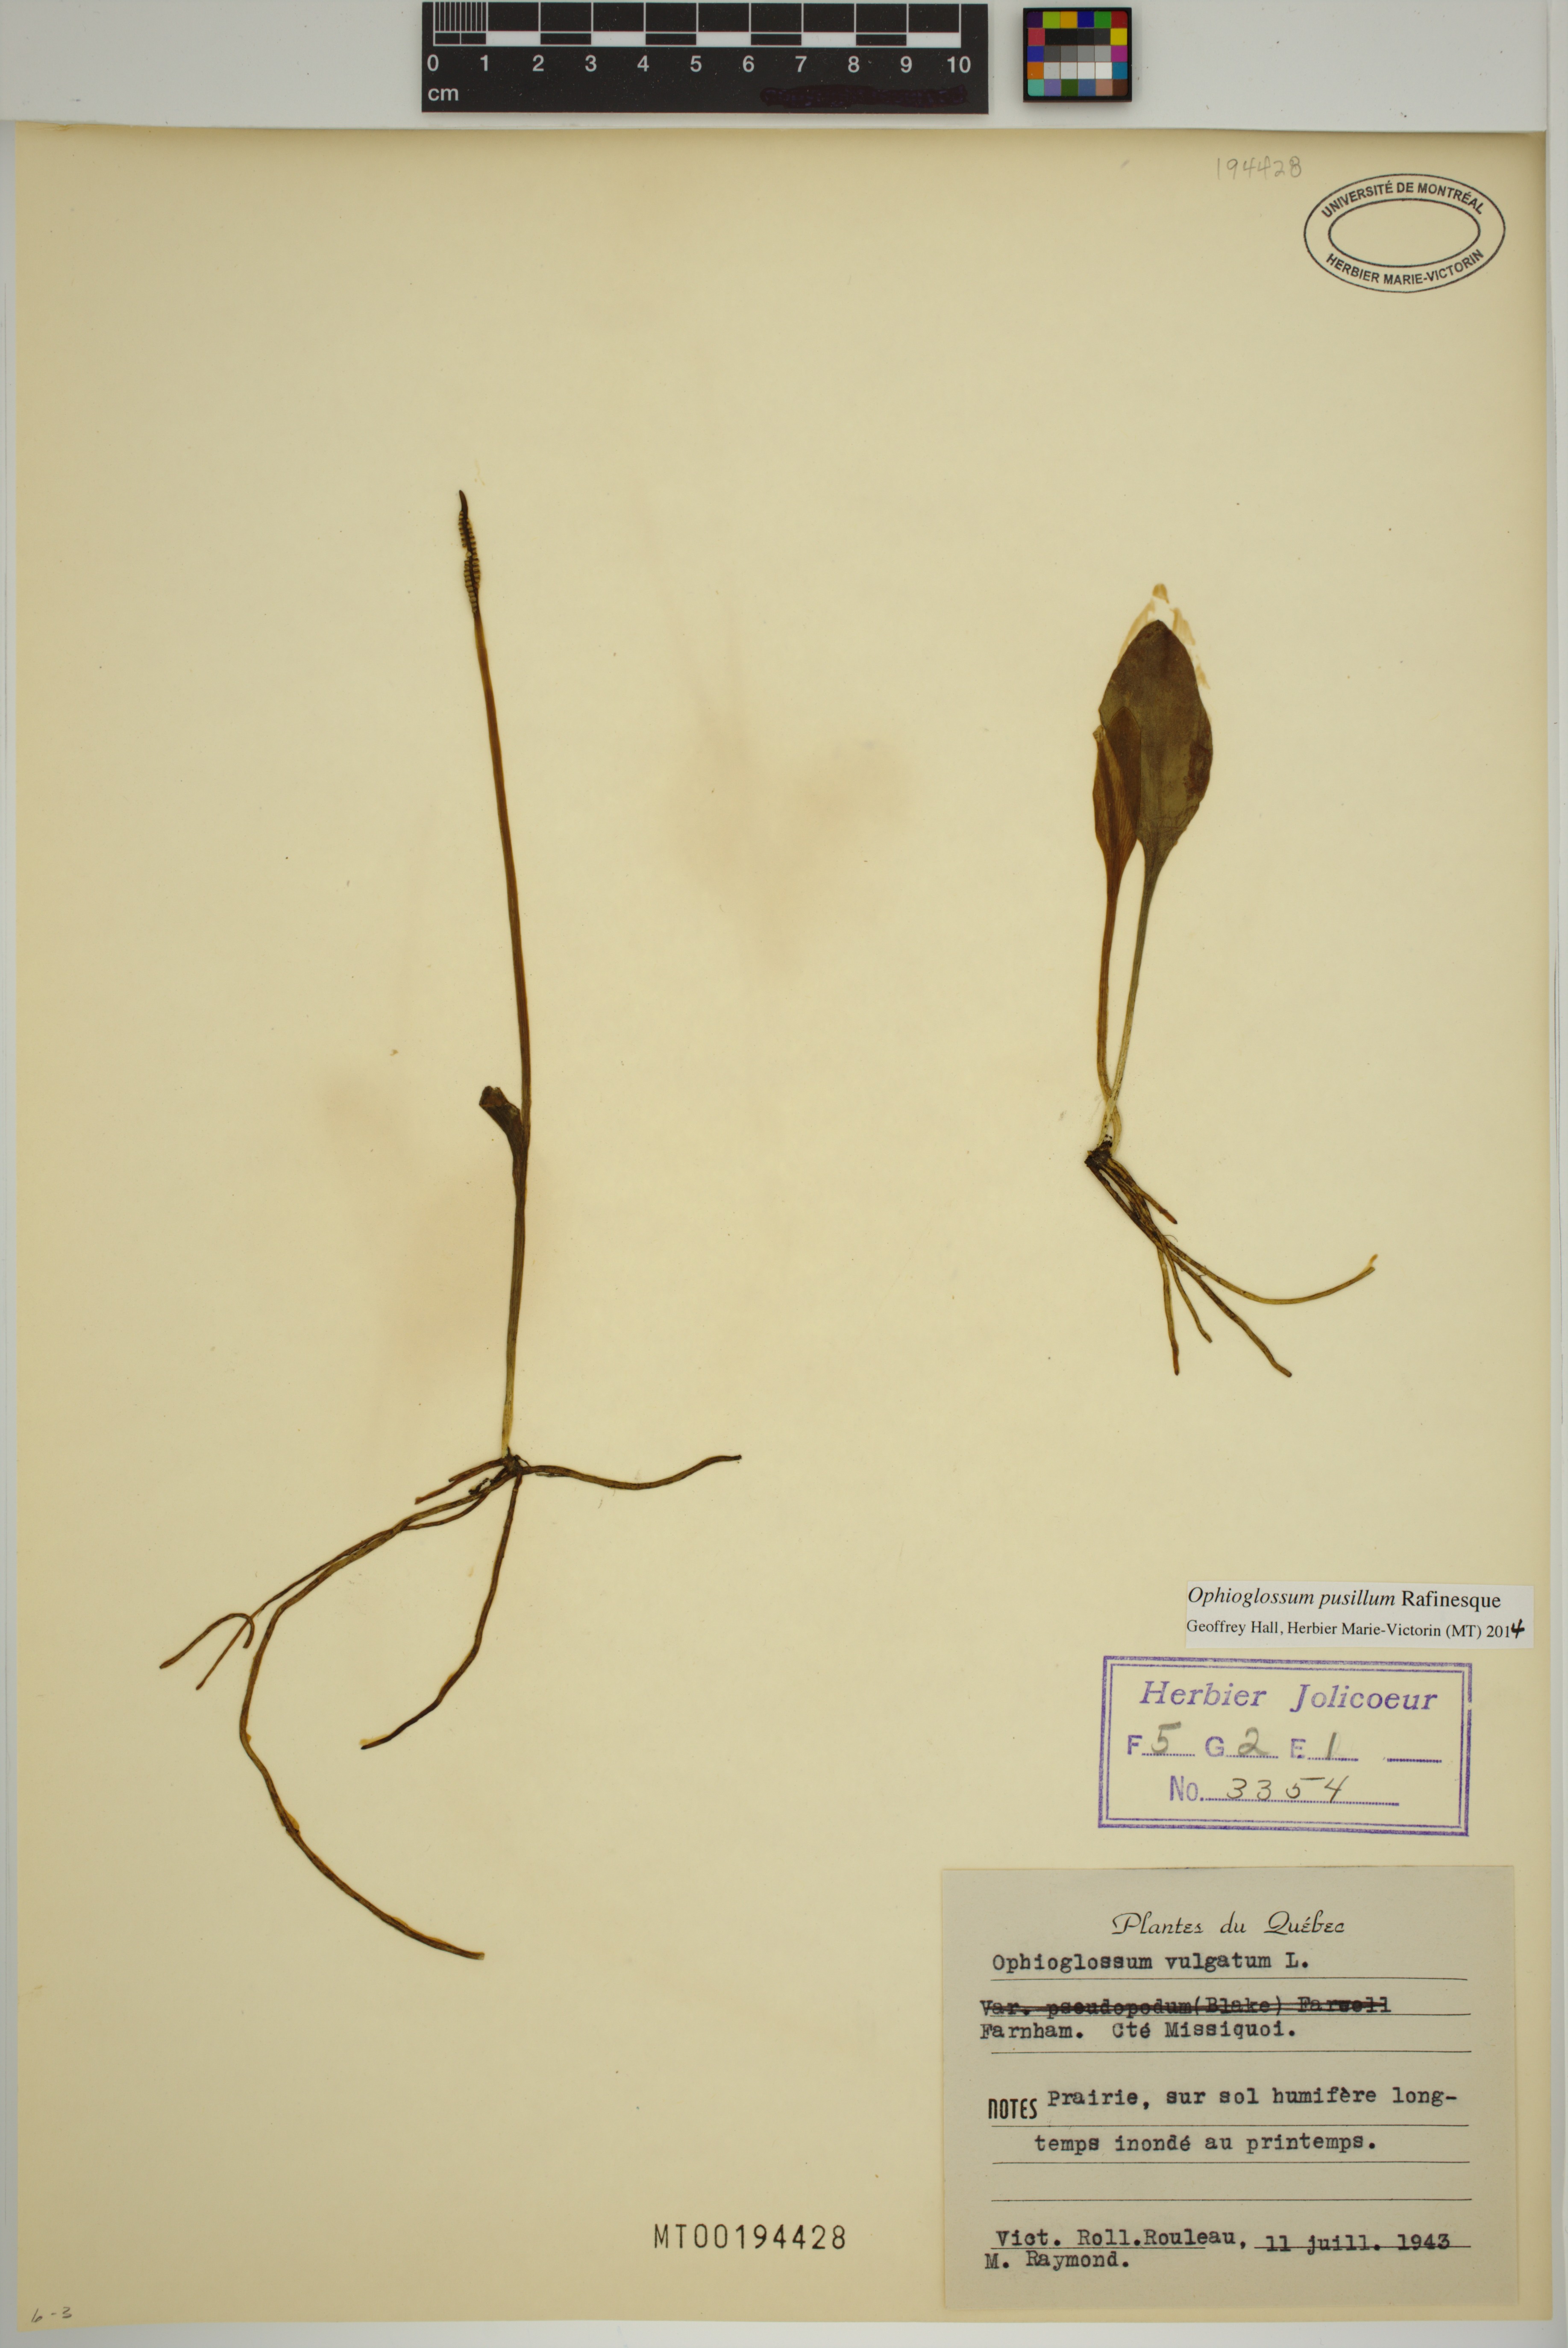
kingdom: Plantae
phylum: Tracheophyta
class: Polypodiopsida
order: Ophioglossales
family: Ophioglossaceae
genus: Ophioglossum
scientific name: Ophioglossum pusillum
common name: Northern adder's-tongue
